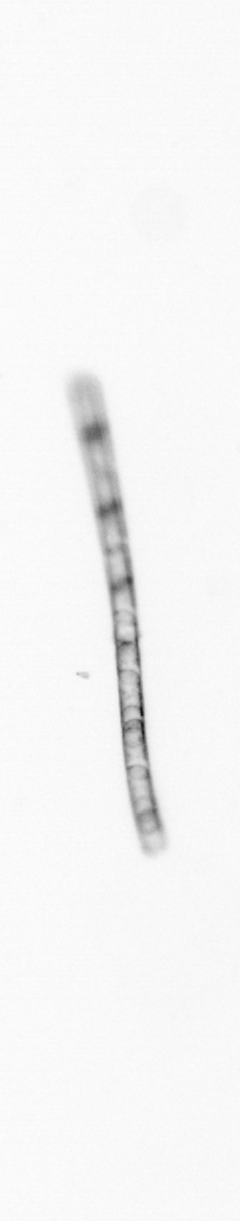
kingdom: Chromista
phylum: Ochrophyta
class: Bacillariophyceae
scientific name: Bacillariophyceae
